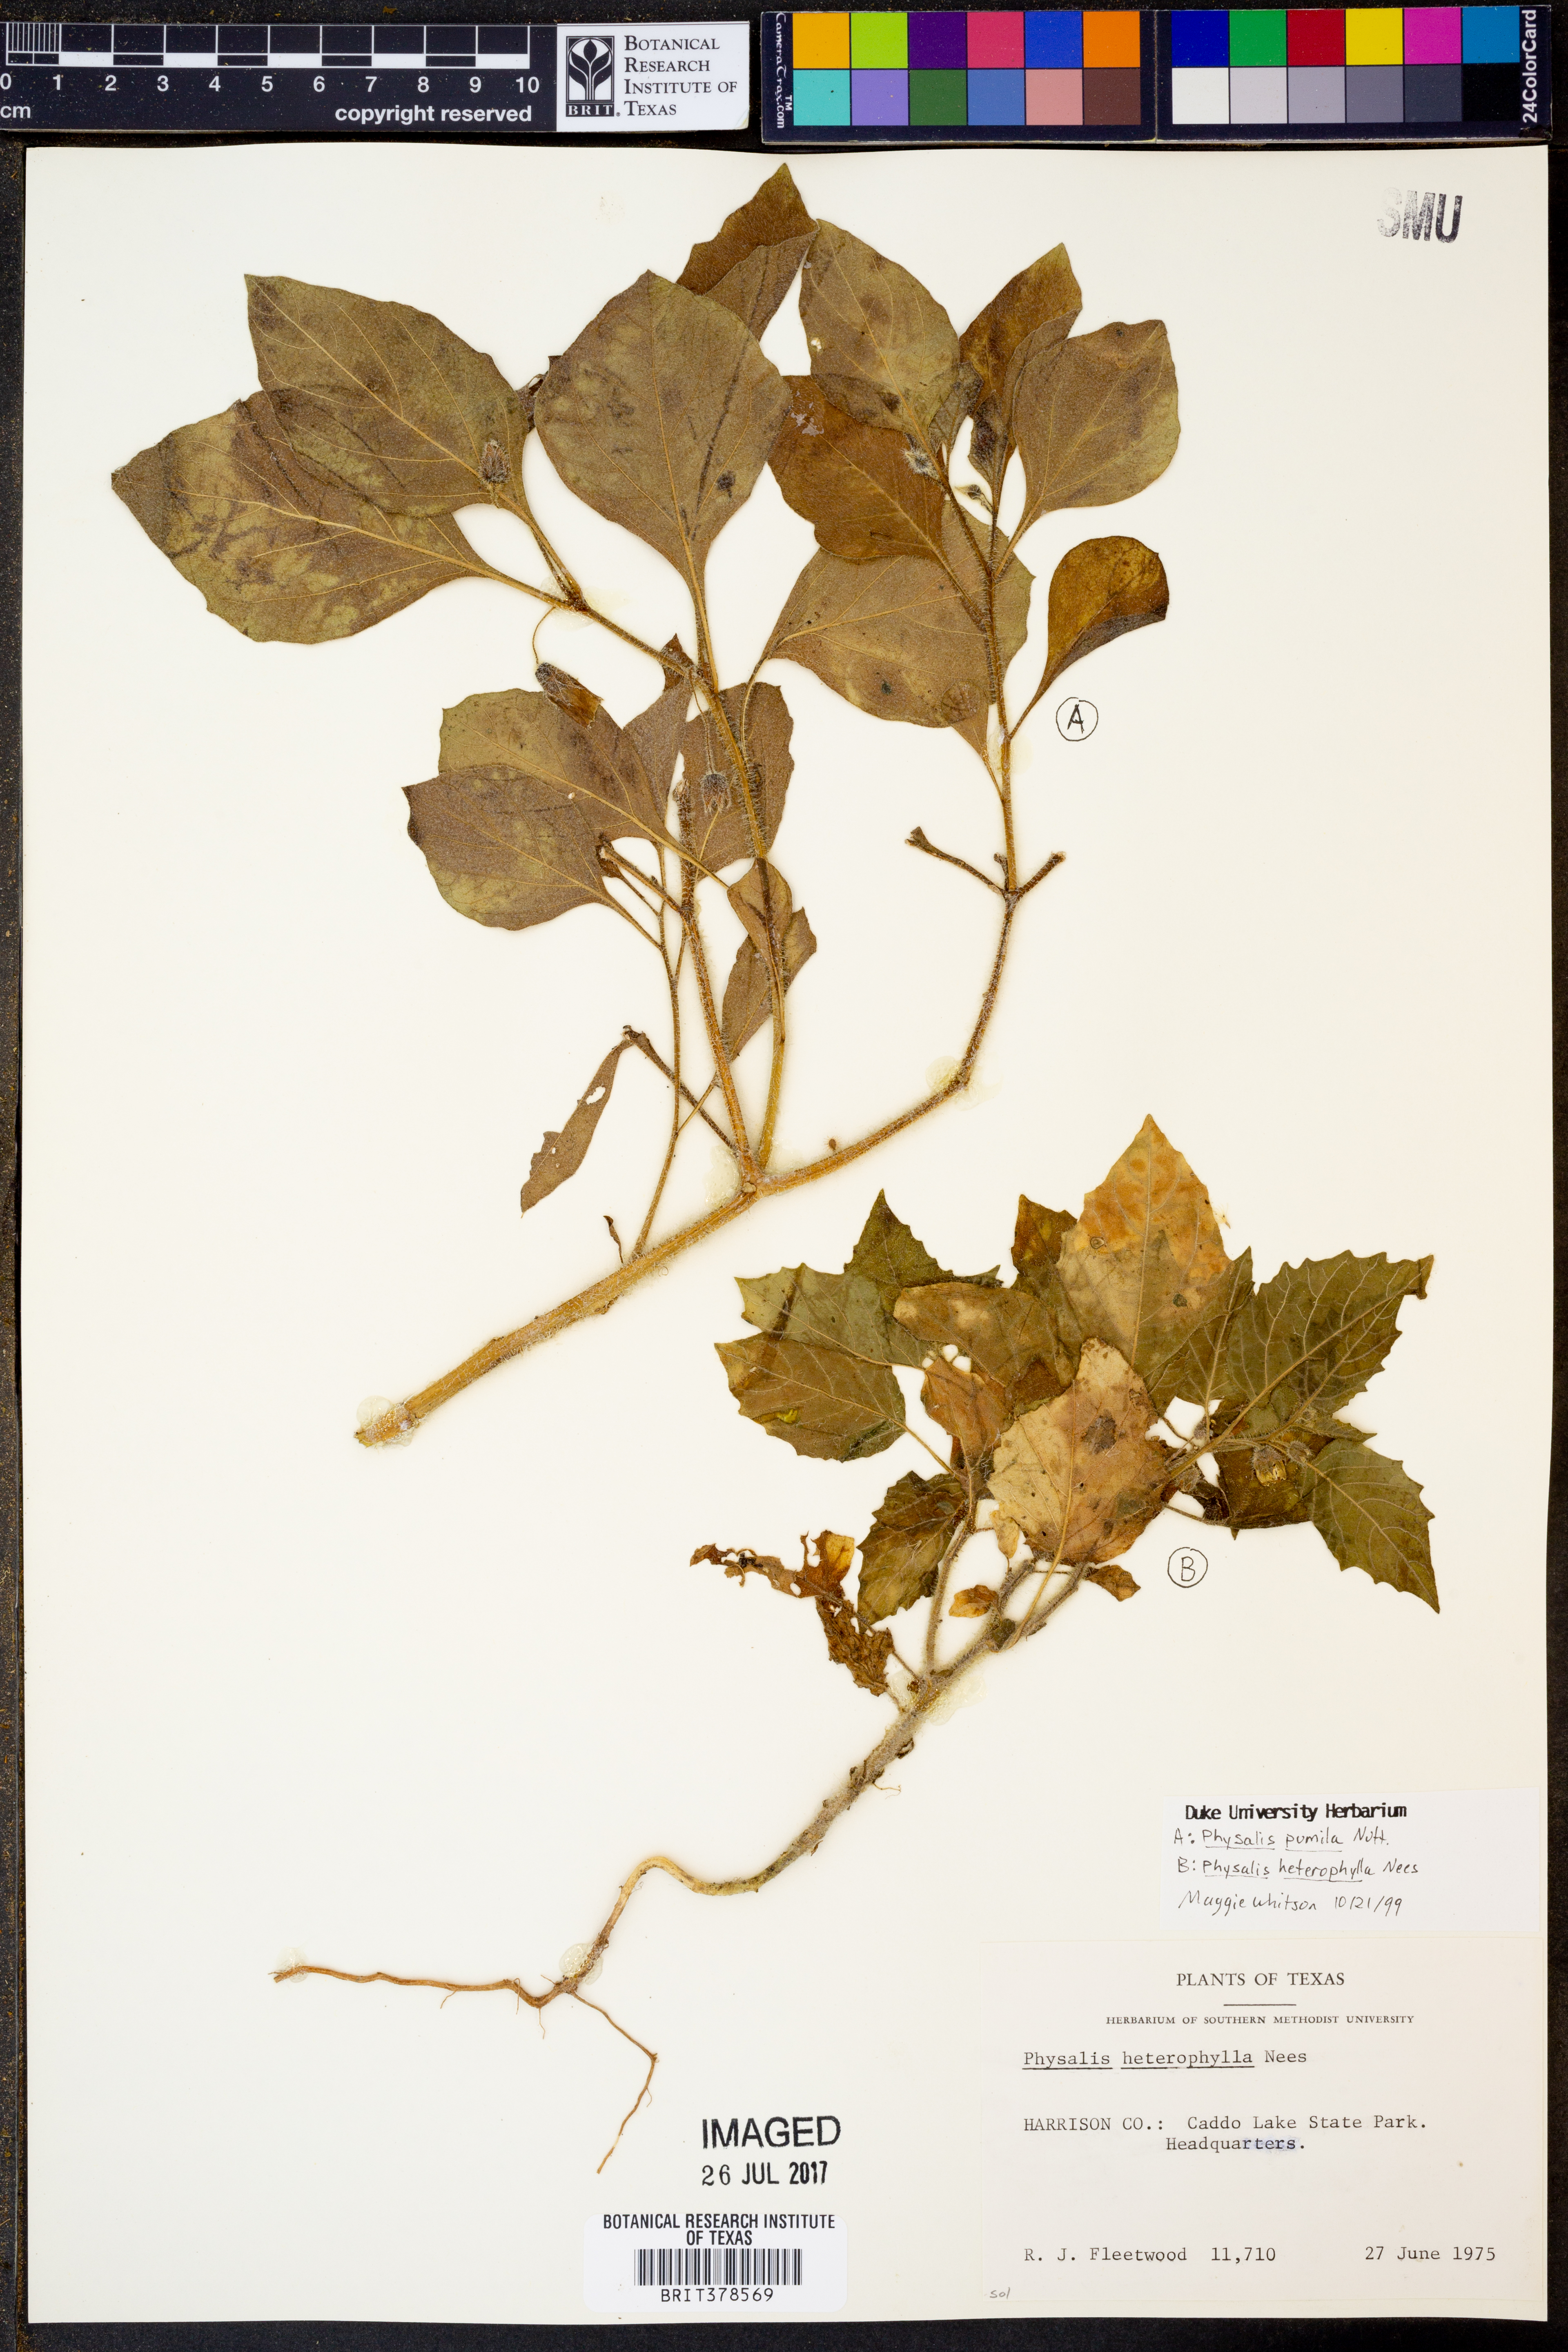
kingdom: Plantae
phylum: Tracheophyta
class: Magnoliopsida
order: Solanales
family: Solanaceae
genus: Physalis
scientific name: Physalis pumila
